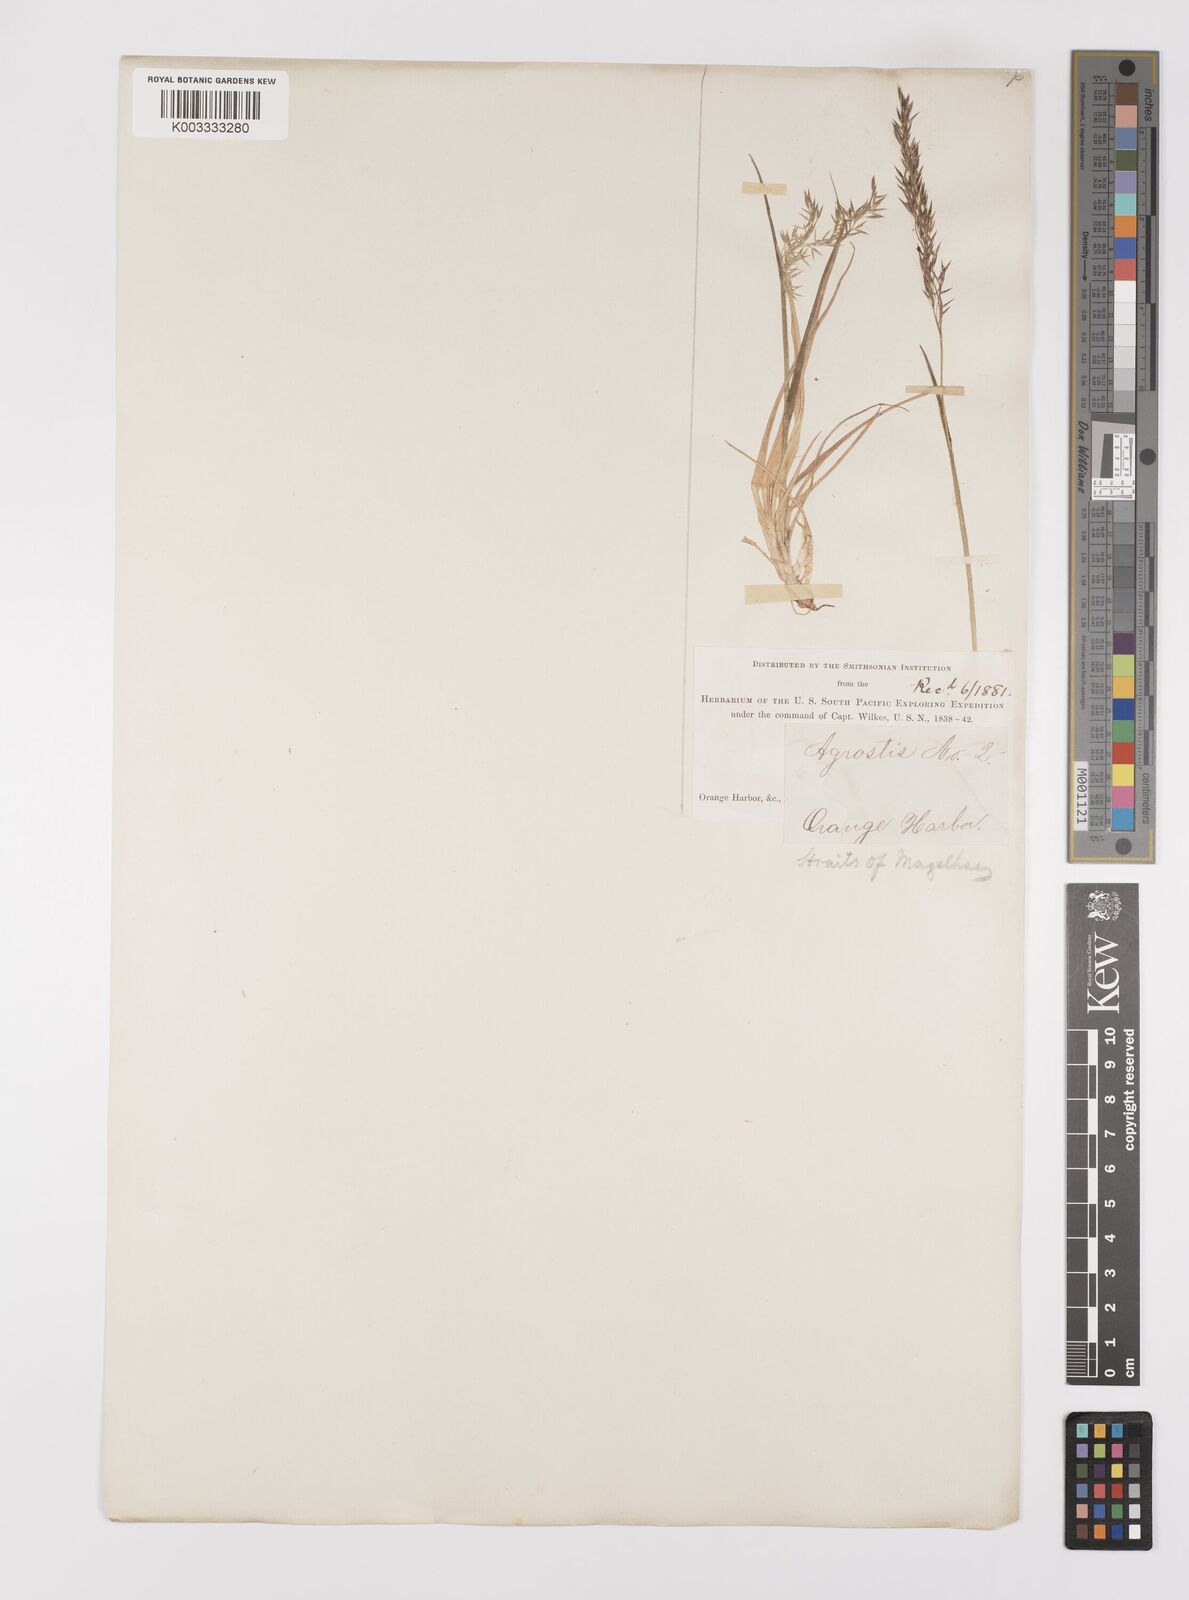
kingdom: Plantae
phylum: Tracheophyta
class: Liliopsida
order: Poales
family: Poaceae
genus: Polypogon
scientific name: Polypogon magellanicus
